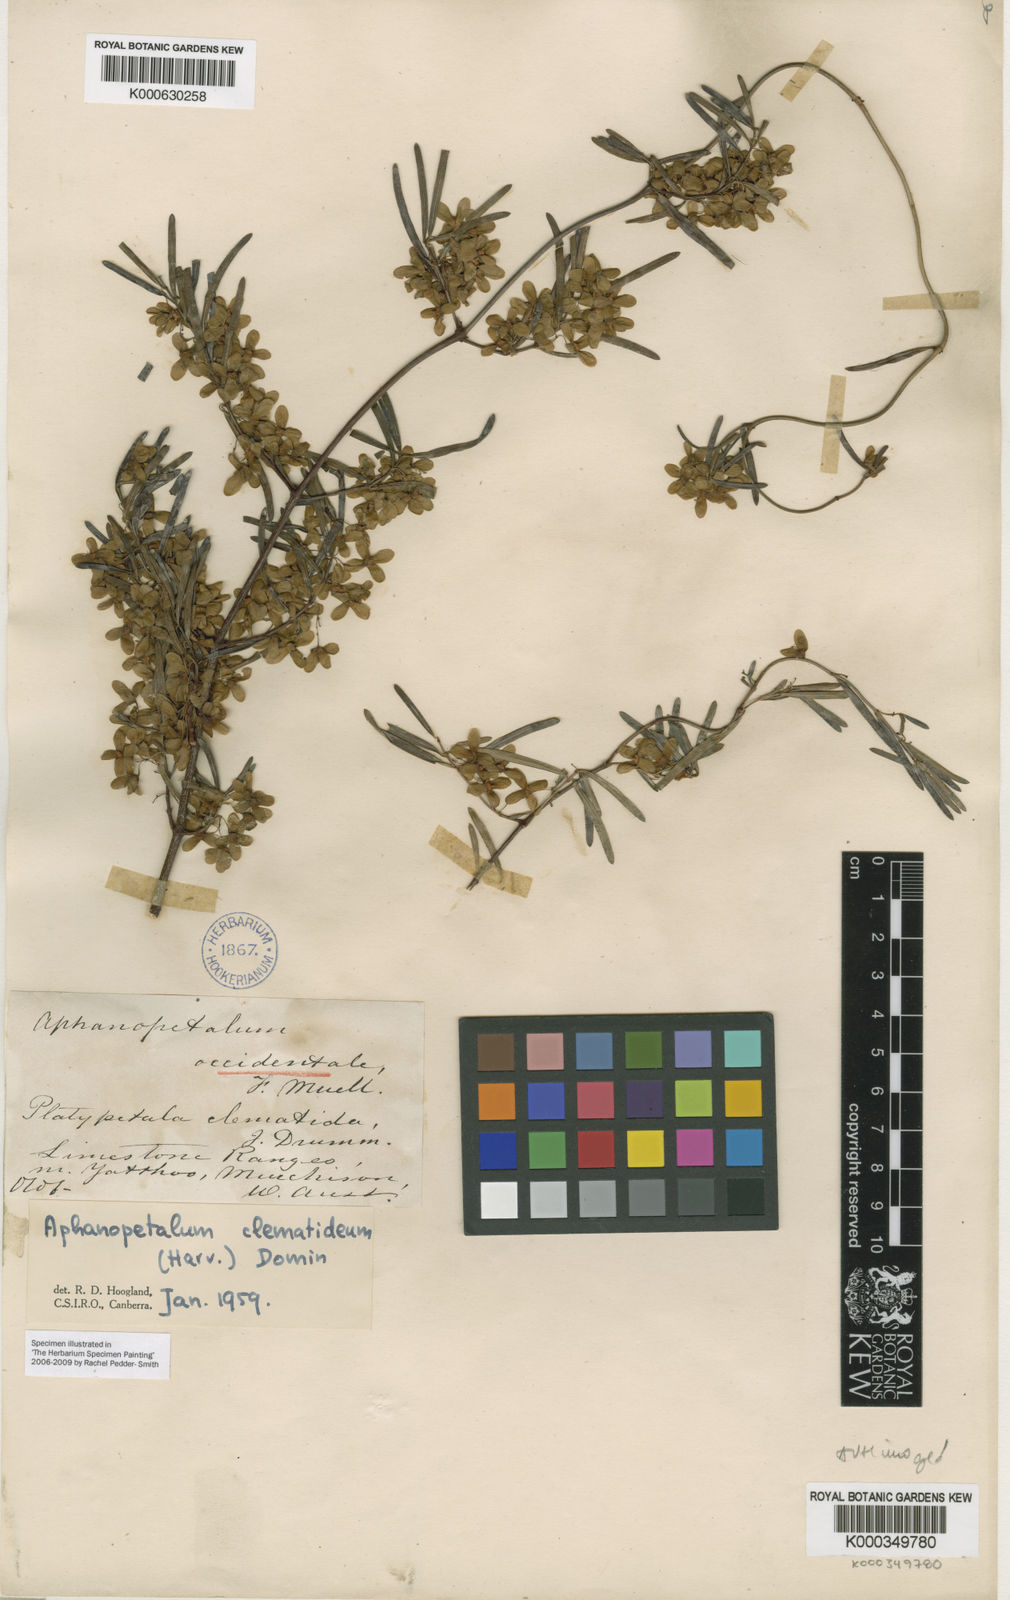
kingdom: Plantae
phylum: Tracheophyta
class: Magnoliopsida
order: Saxifragales
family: Aphanopetalaceae
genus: Aphanopetalum
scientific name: Aphanopetalum clematideum
